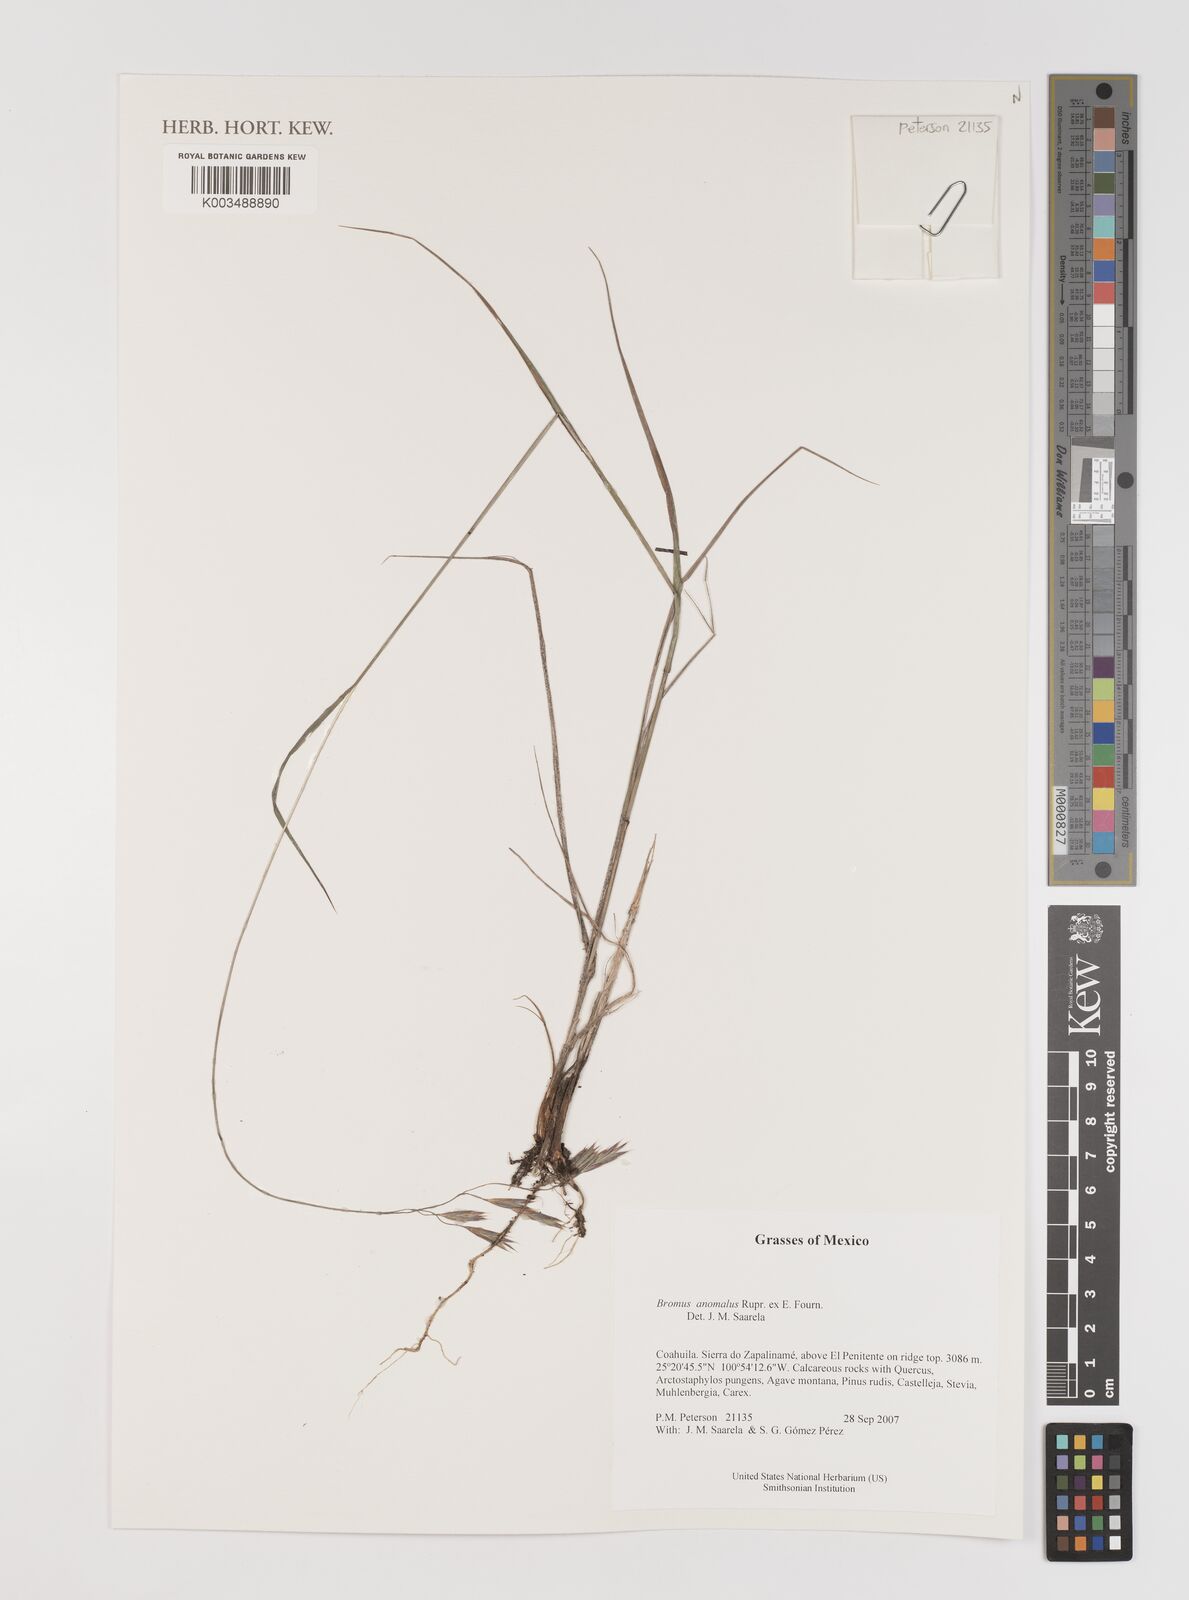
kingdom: Plantae
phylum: Tracheophyta
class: Liliopsida
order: Poales
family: Poaceae
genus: Bromus
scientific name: Bromus anomalus
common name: Nodding brome
